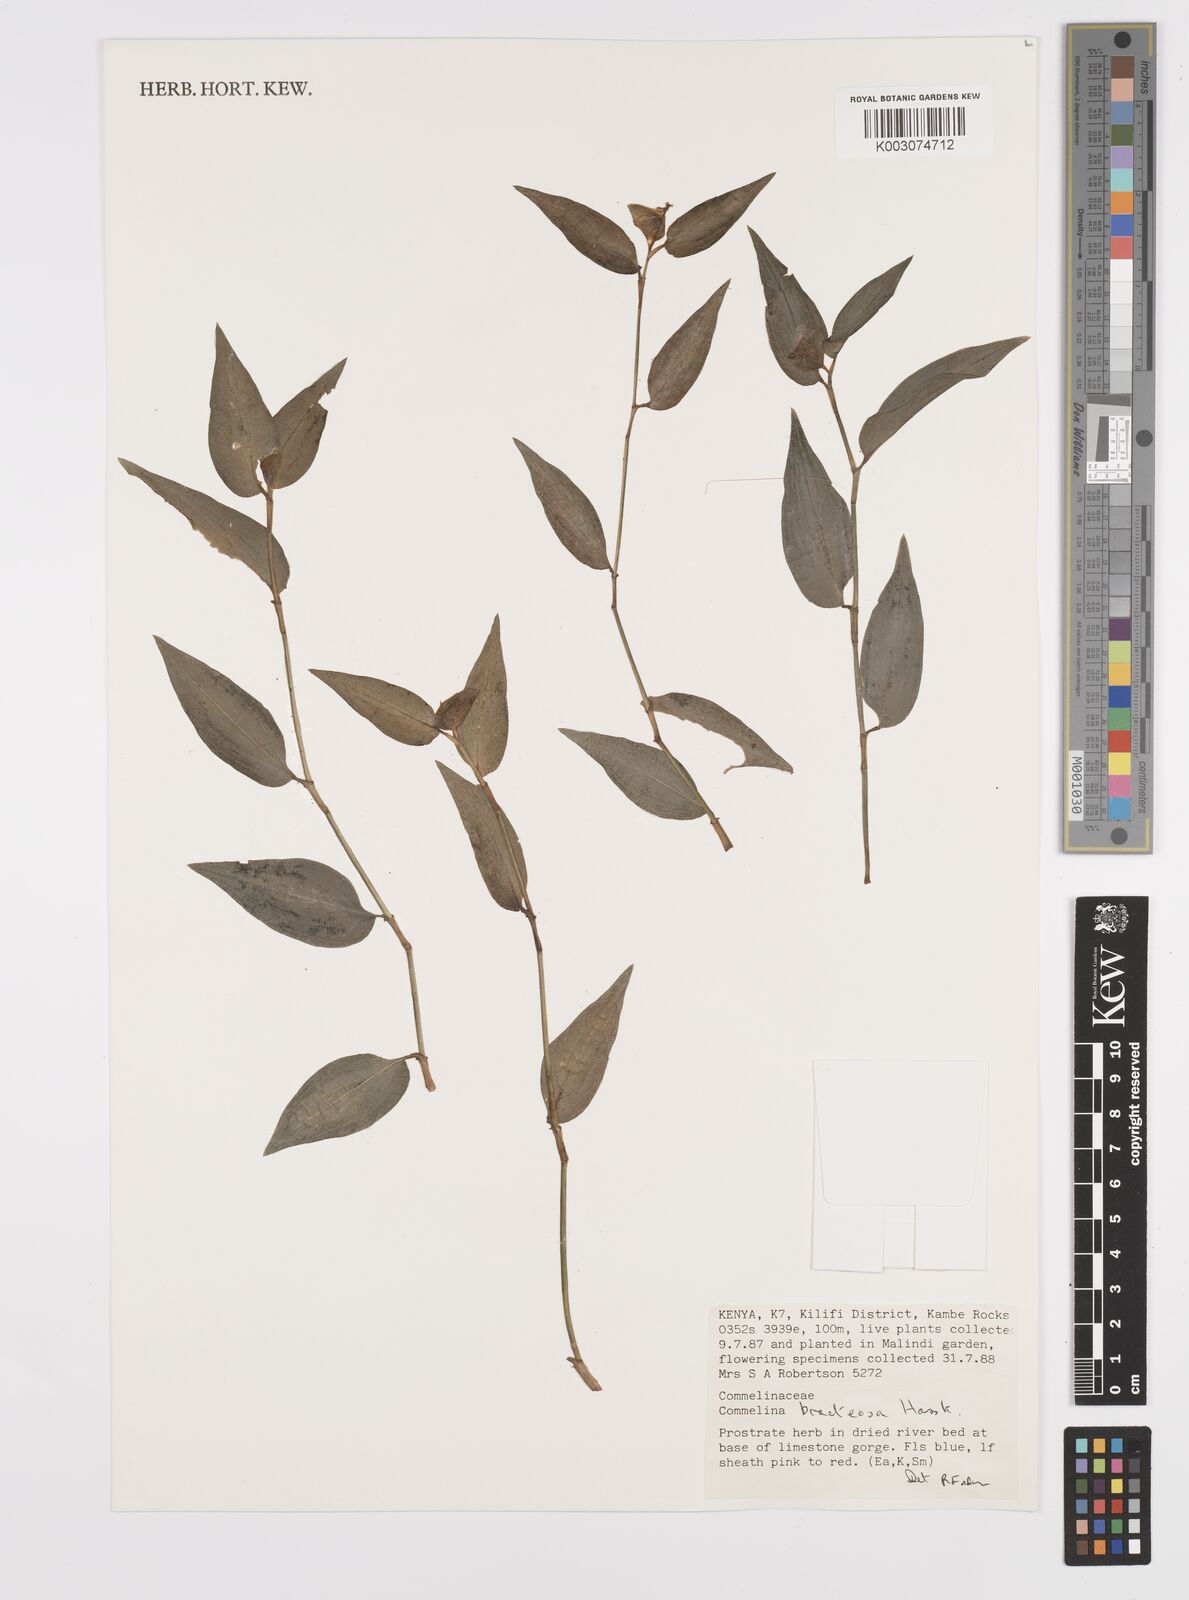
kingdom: Plantae
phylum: Tracheophyta
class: Liliopsida
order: Commelinales
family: Commelinaceae
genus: Commelina
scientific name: Commelina bracteosa
